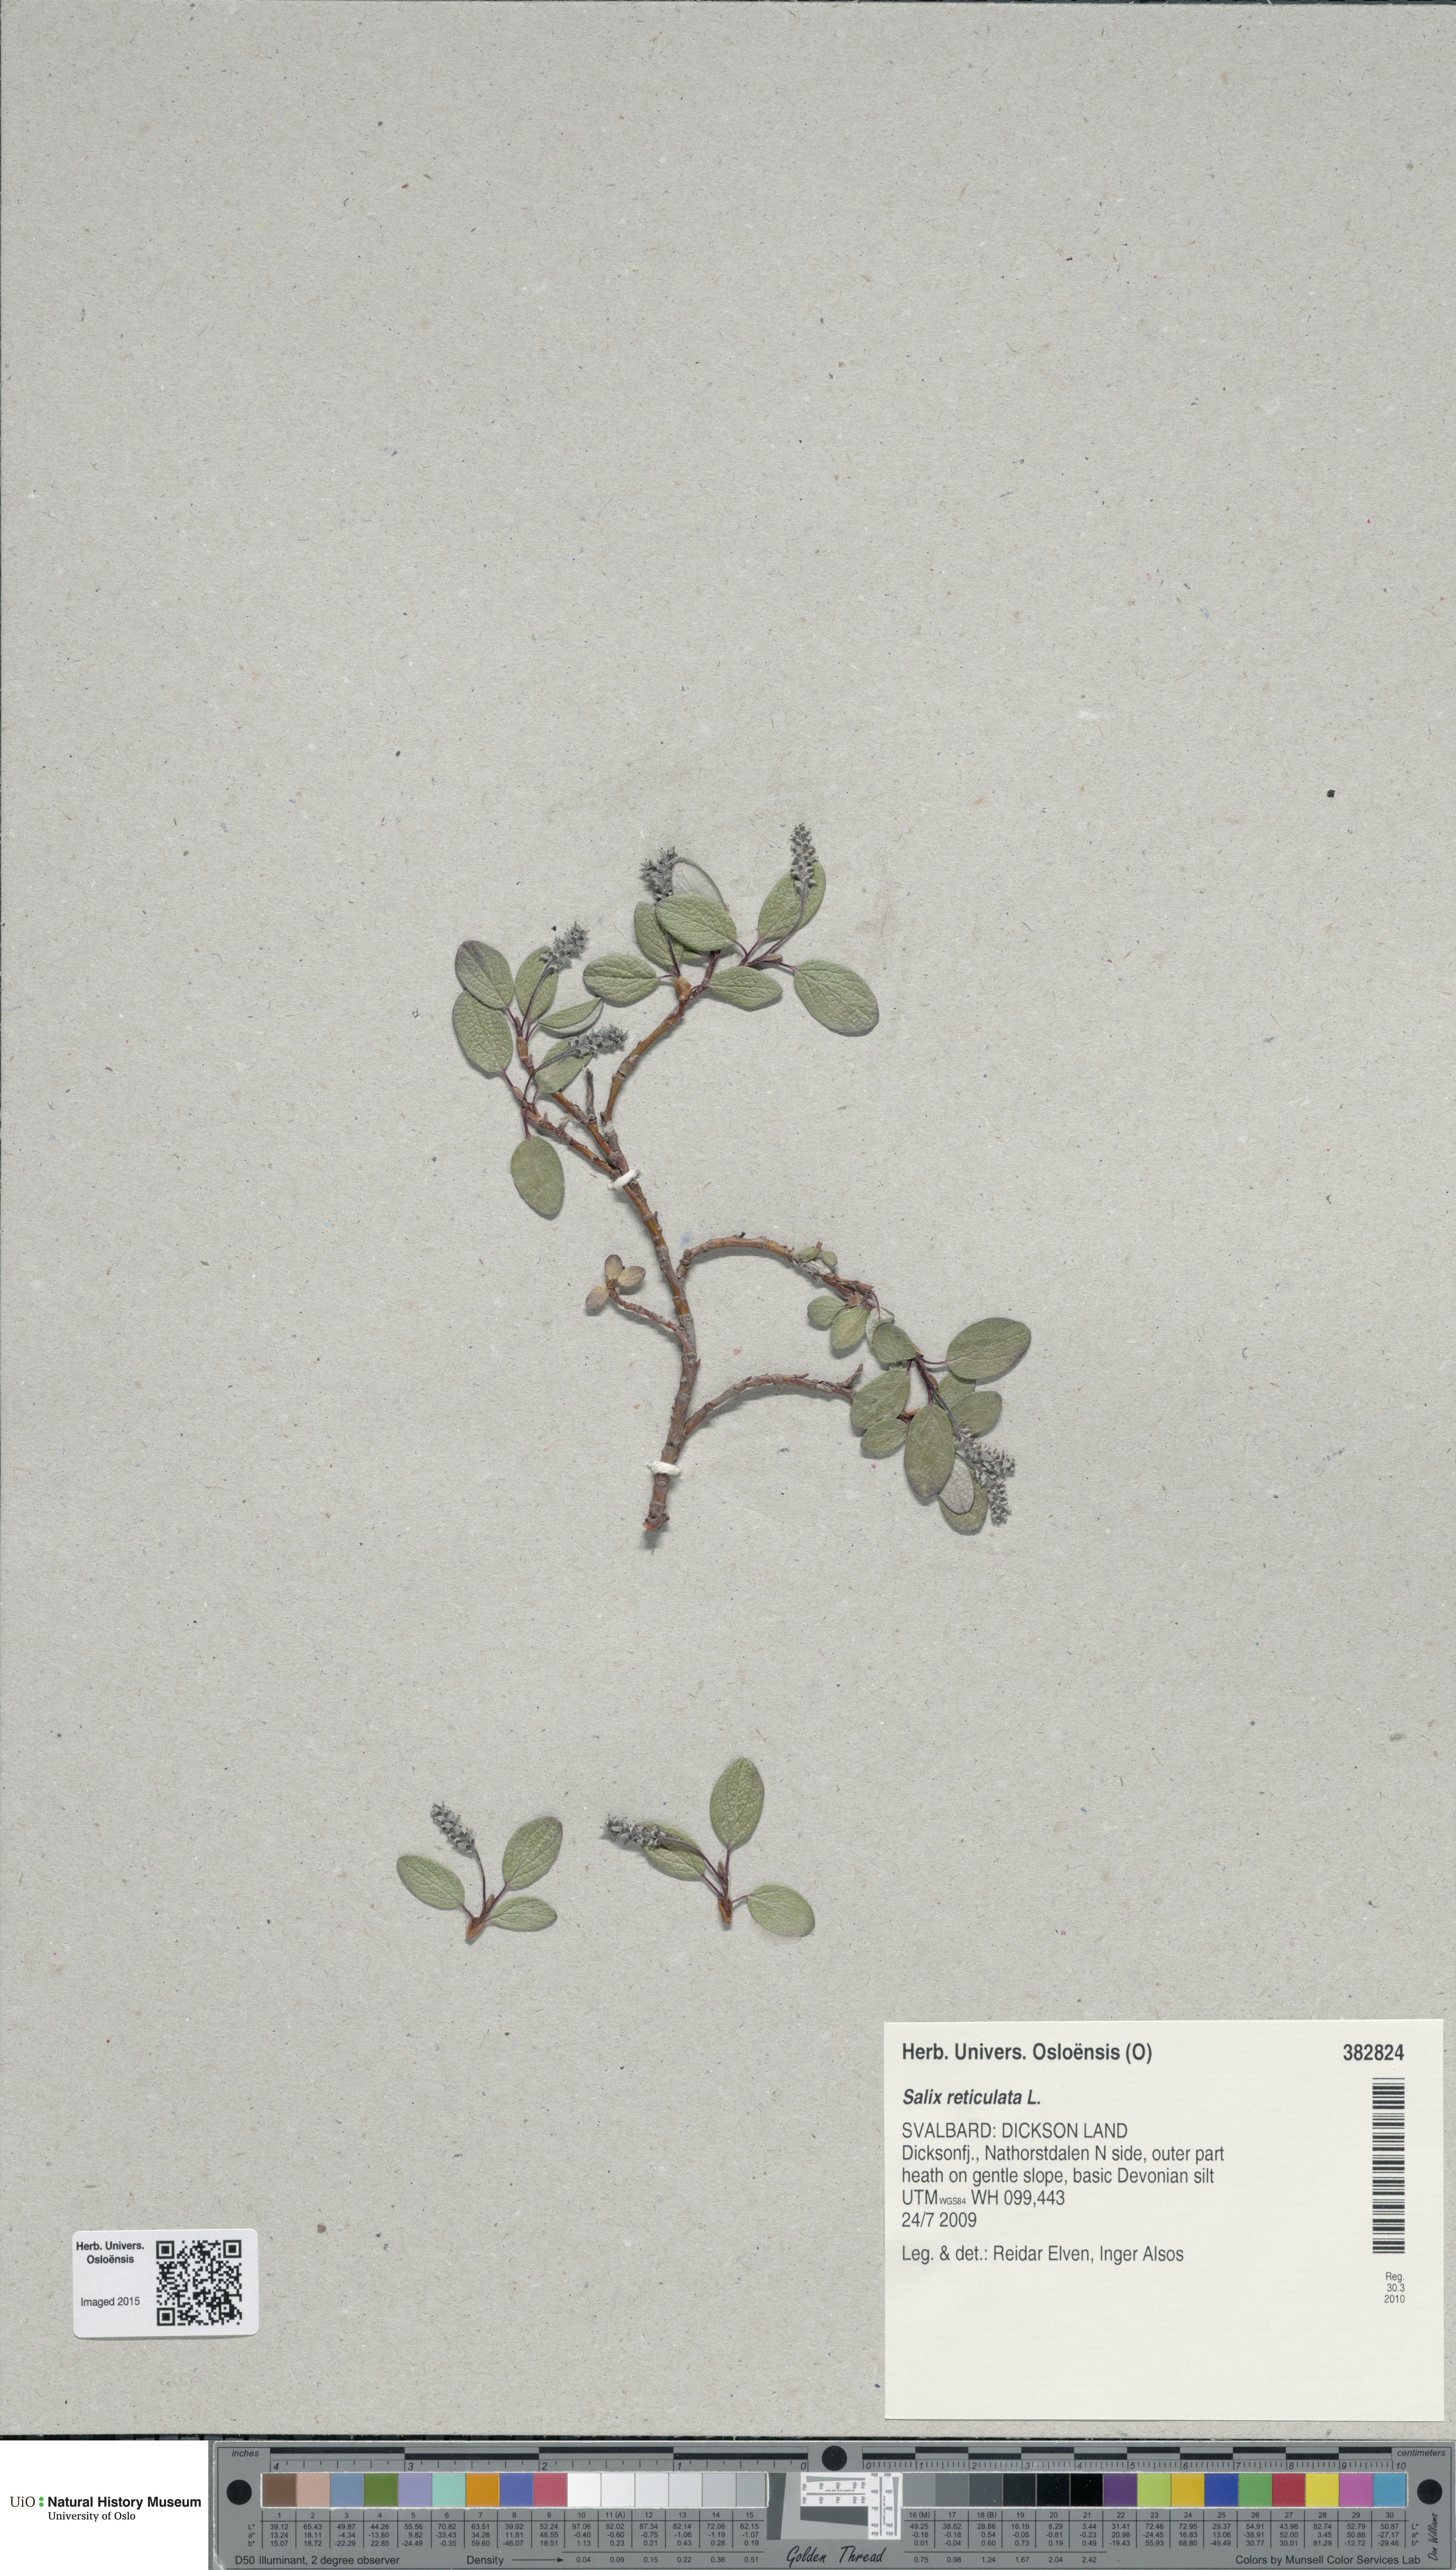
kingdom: Plantae
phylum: Tracheophyta
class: Magnoliopsida
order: Malpighiales
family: Salicaceae
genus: Salix
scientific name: Salix reticulata
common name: Net-leaved willow
